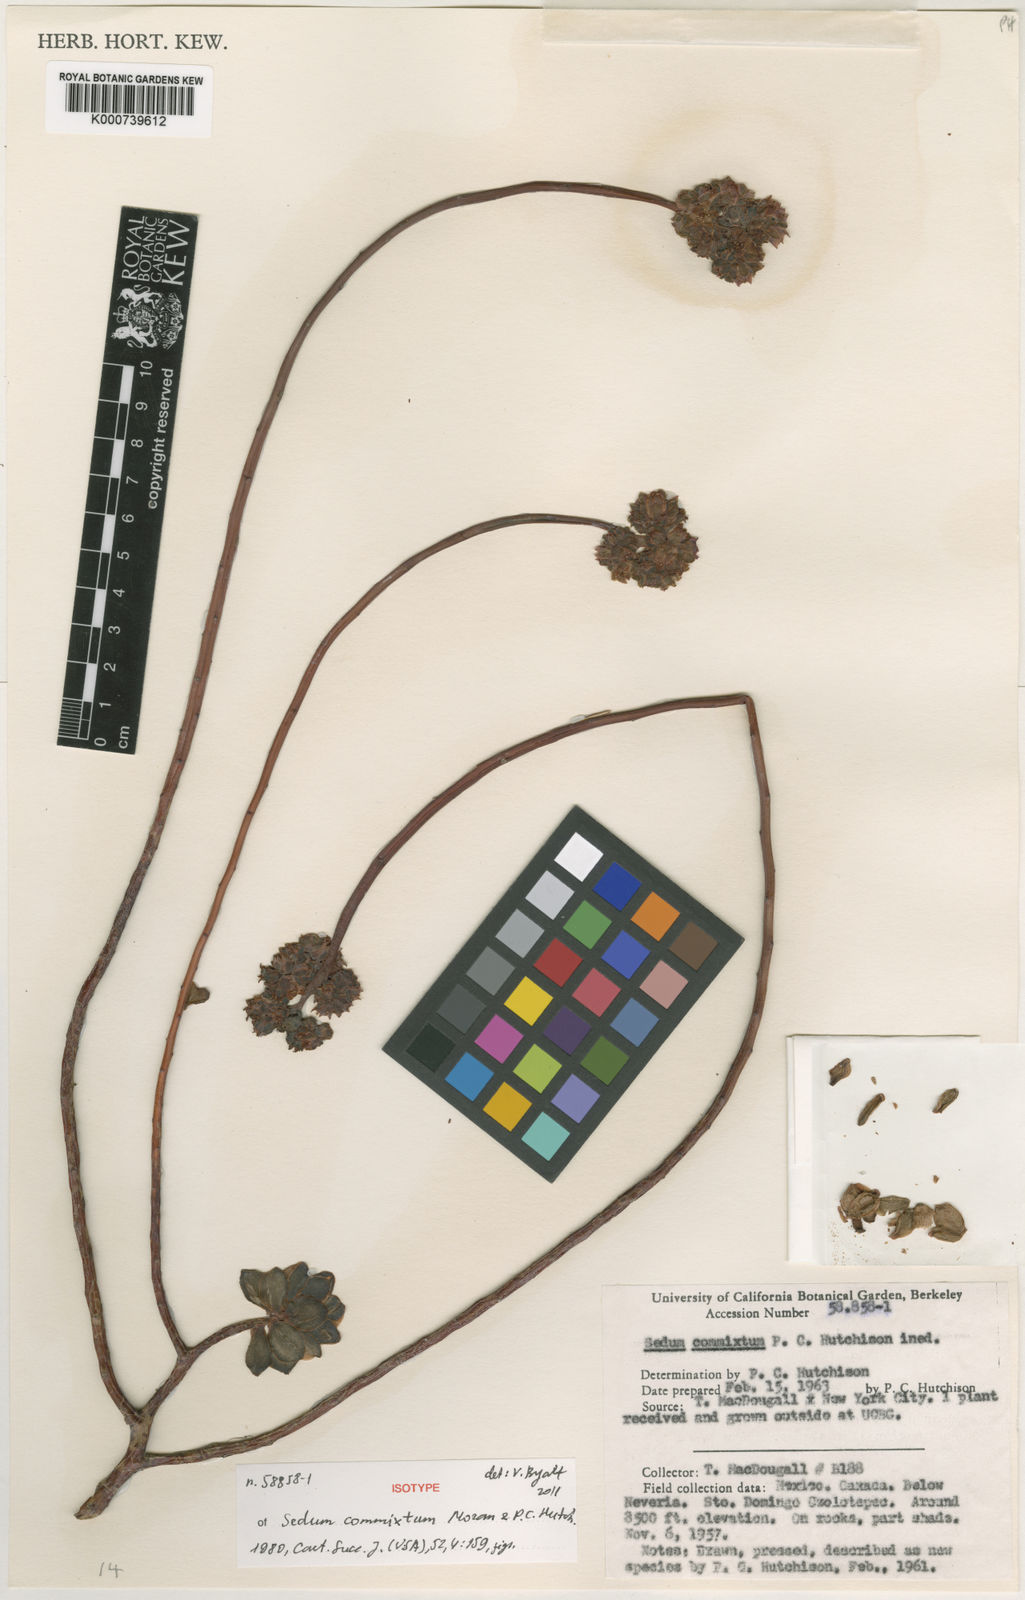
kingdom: Plantae
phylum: Tracheophyta
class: Magnoliopsida
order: Saxifragales
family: Crassulaceae
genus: Sedum
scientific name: Sedum commixtum
